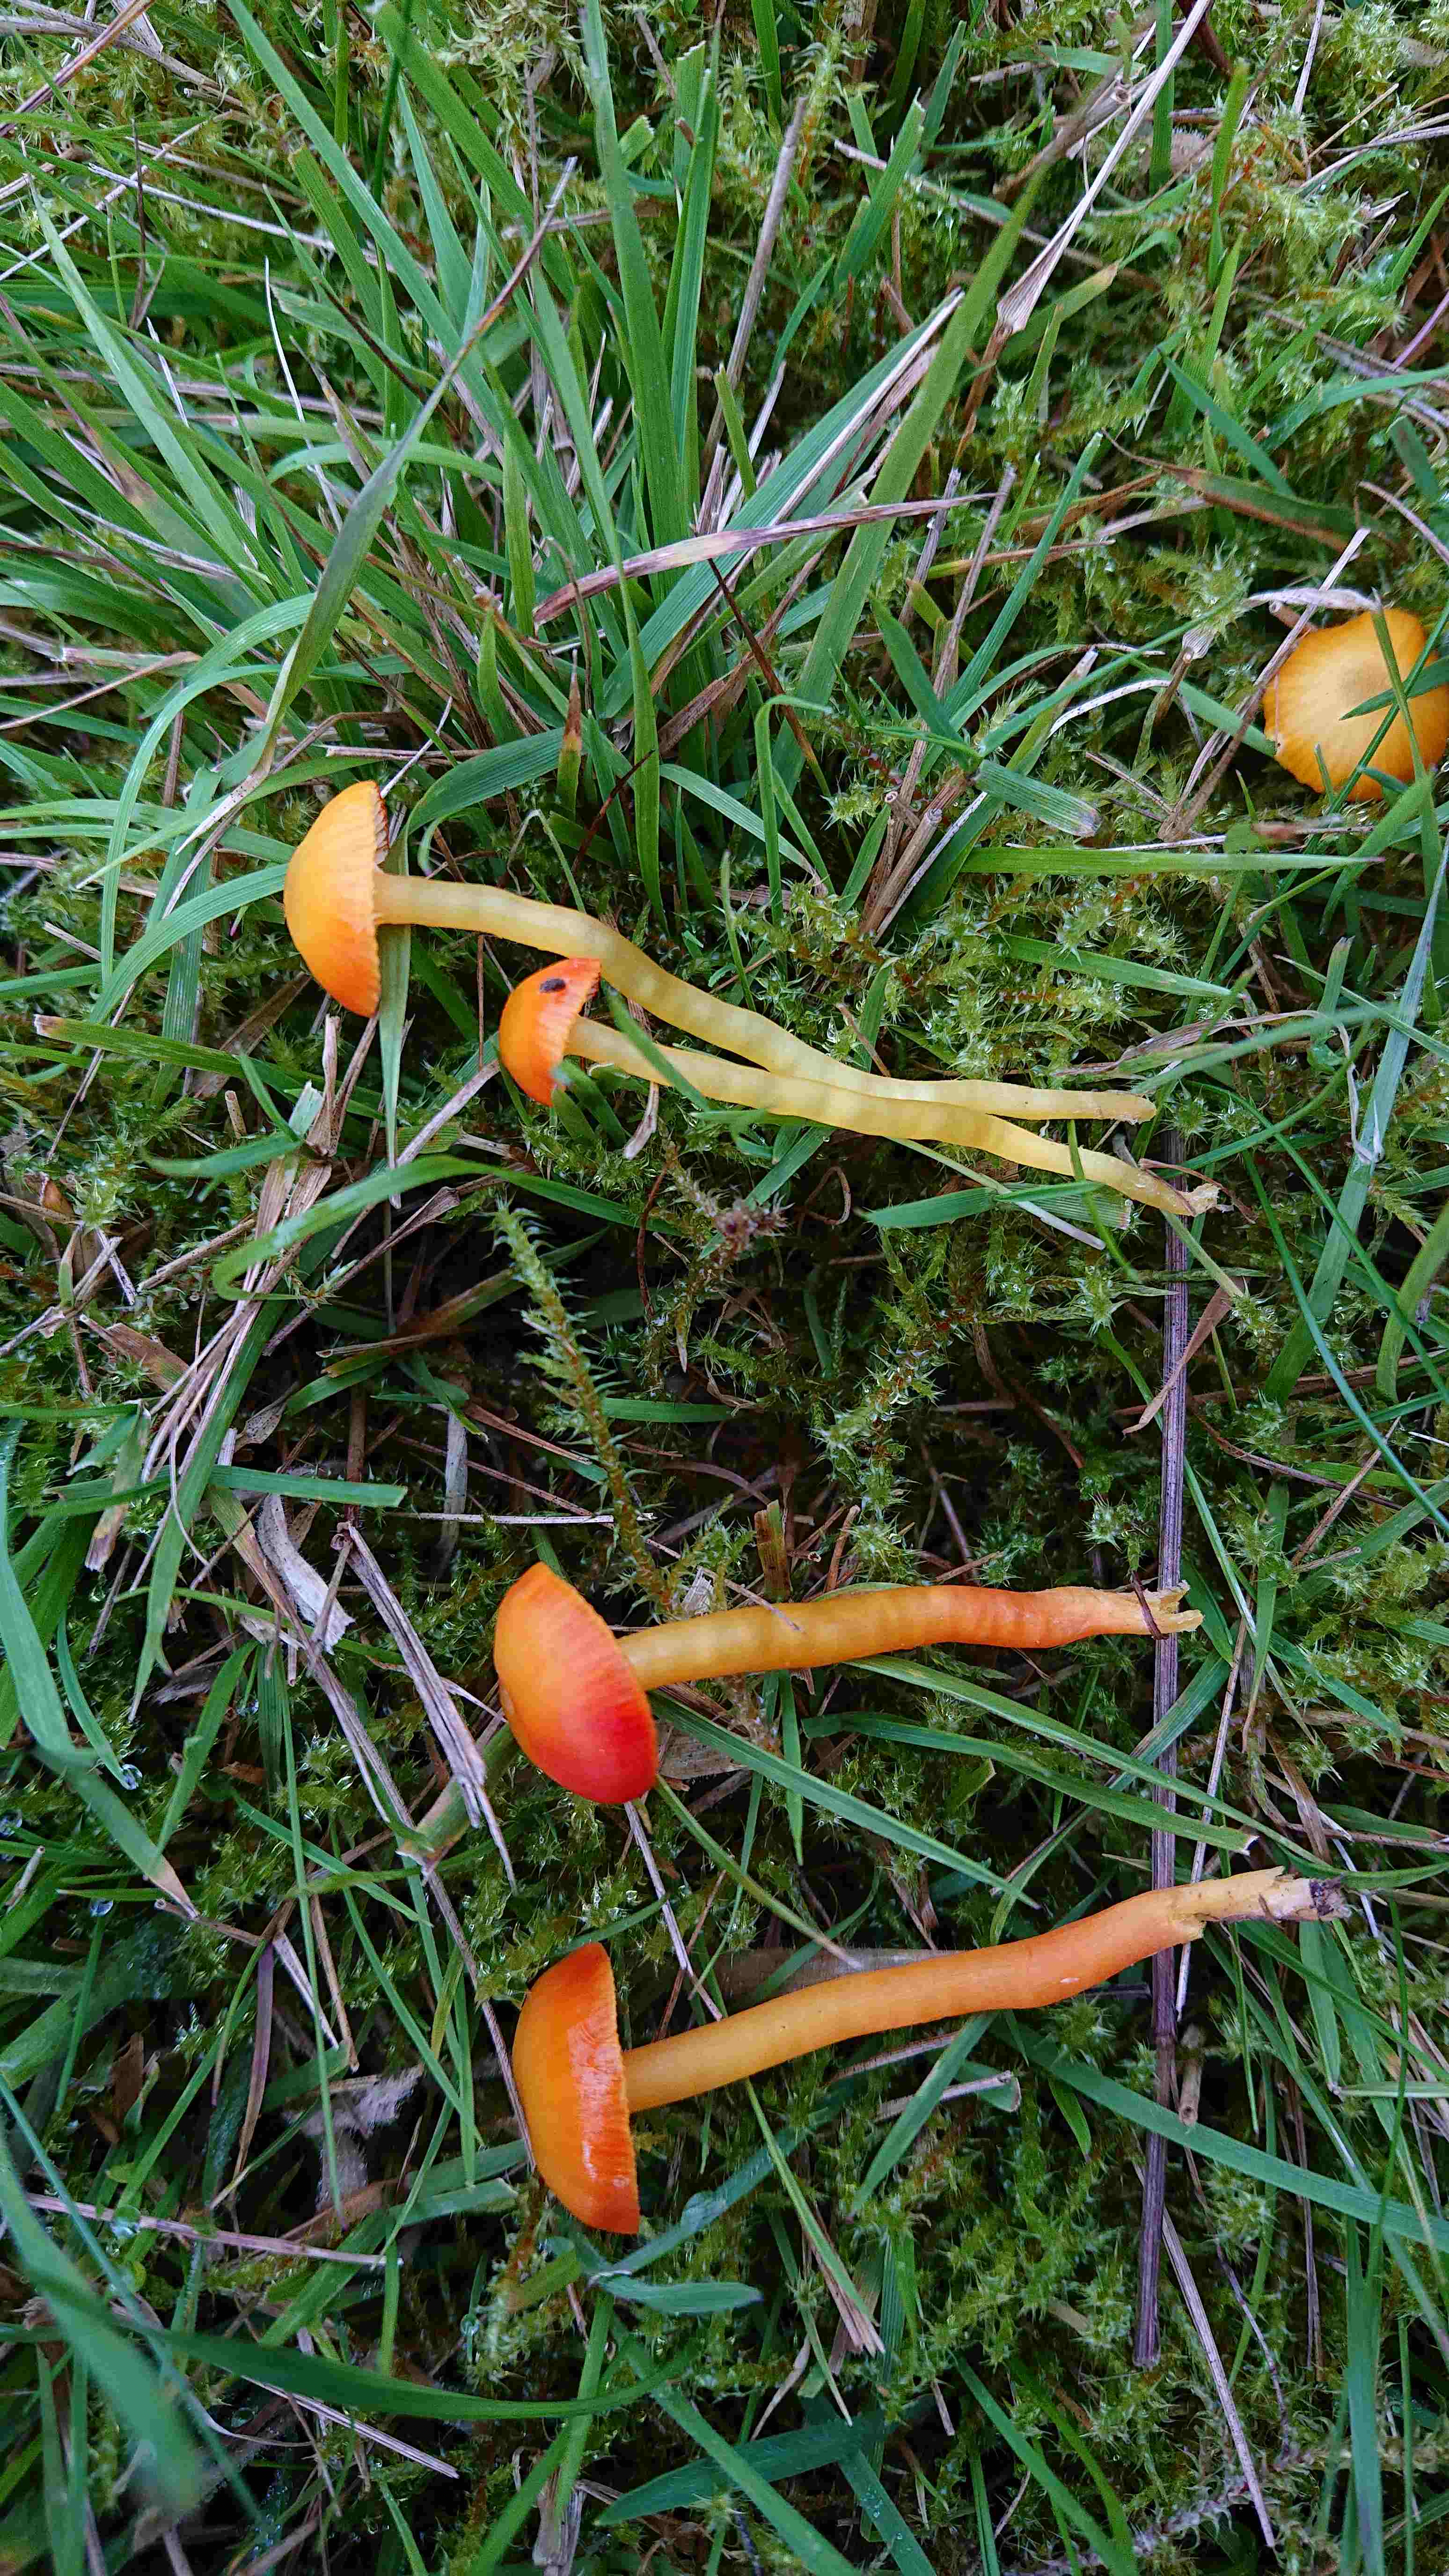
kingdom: Fungi
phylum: Basidiomycota
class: Agaricomycetes
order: Agaricales
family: Hygrophoraceae
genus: Hygrocybe
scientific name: Hygrocybe insipida
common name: liden vokshat
